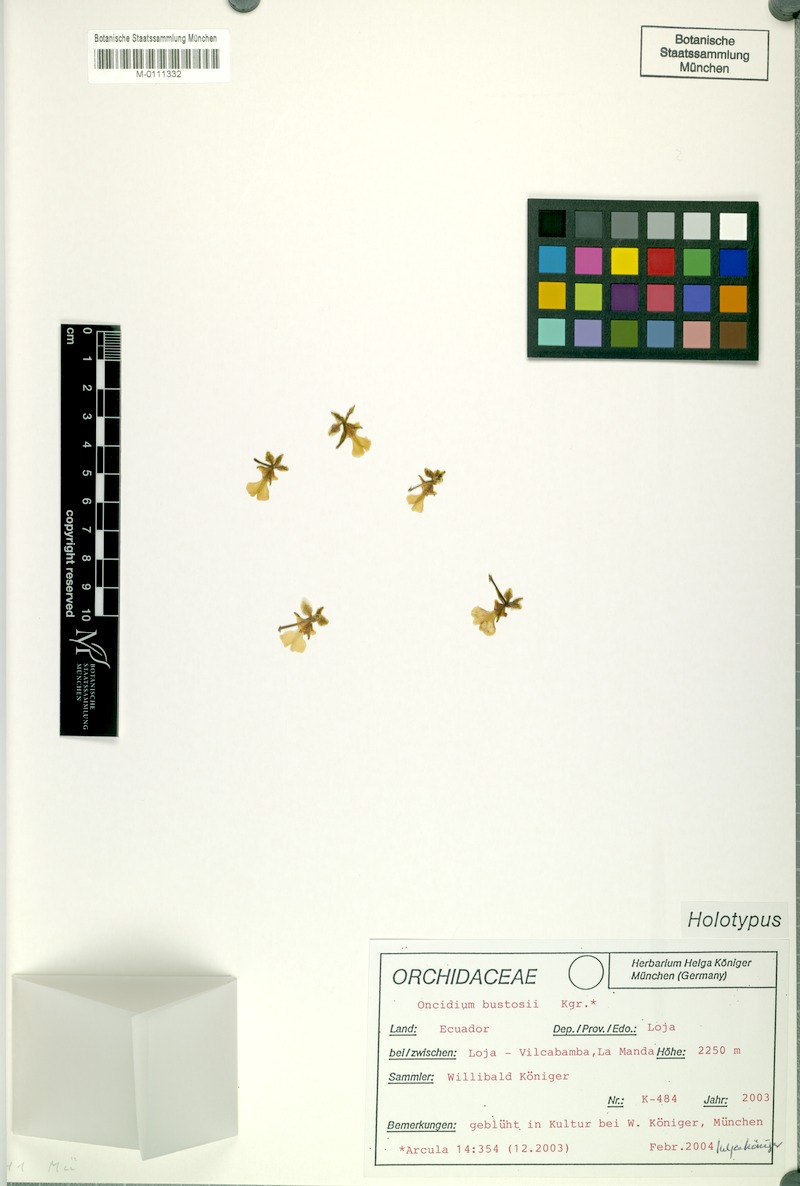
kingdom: Plantae
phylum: Tracheophyta
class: Liliopsida
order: Asparagales
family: Orchidaceae
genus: Oncidium
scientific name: Oncidium bustosii
